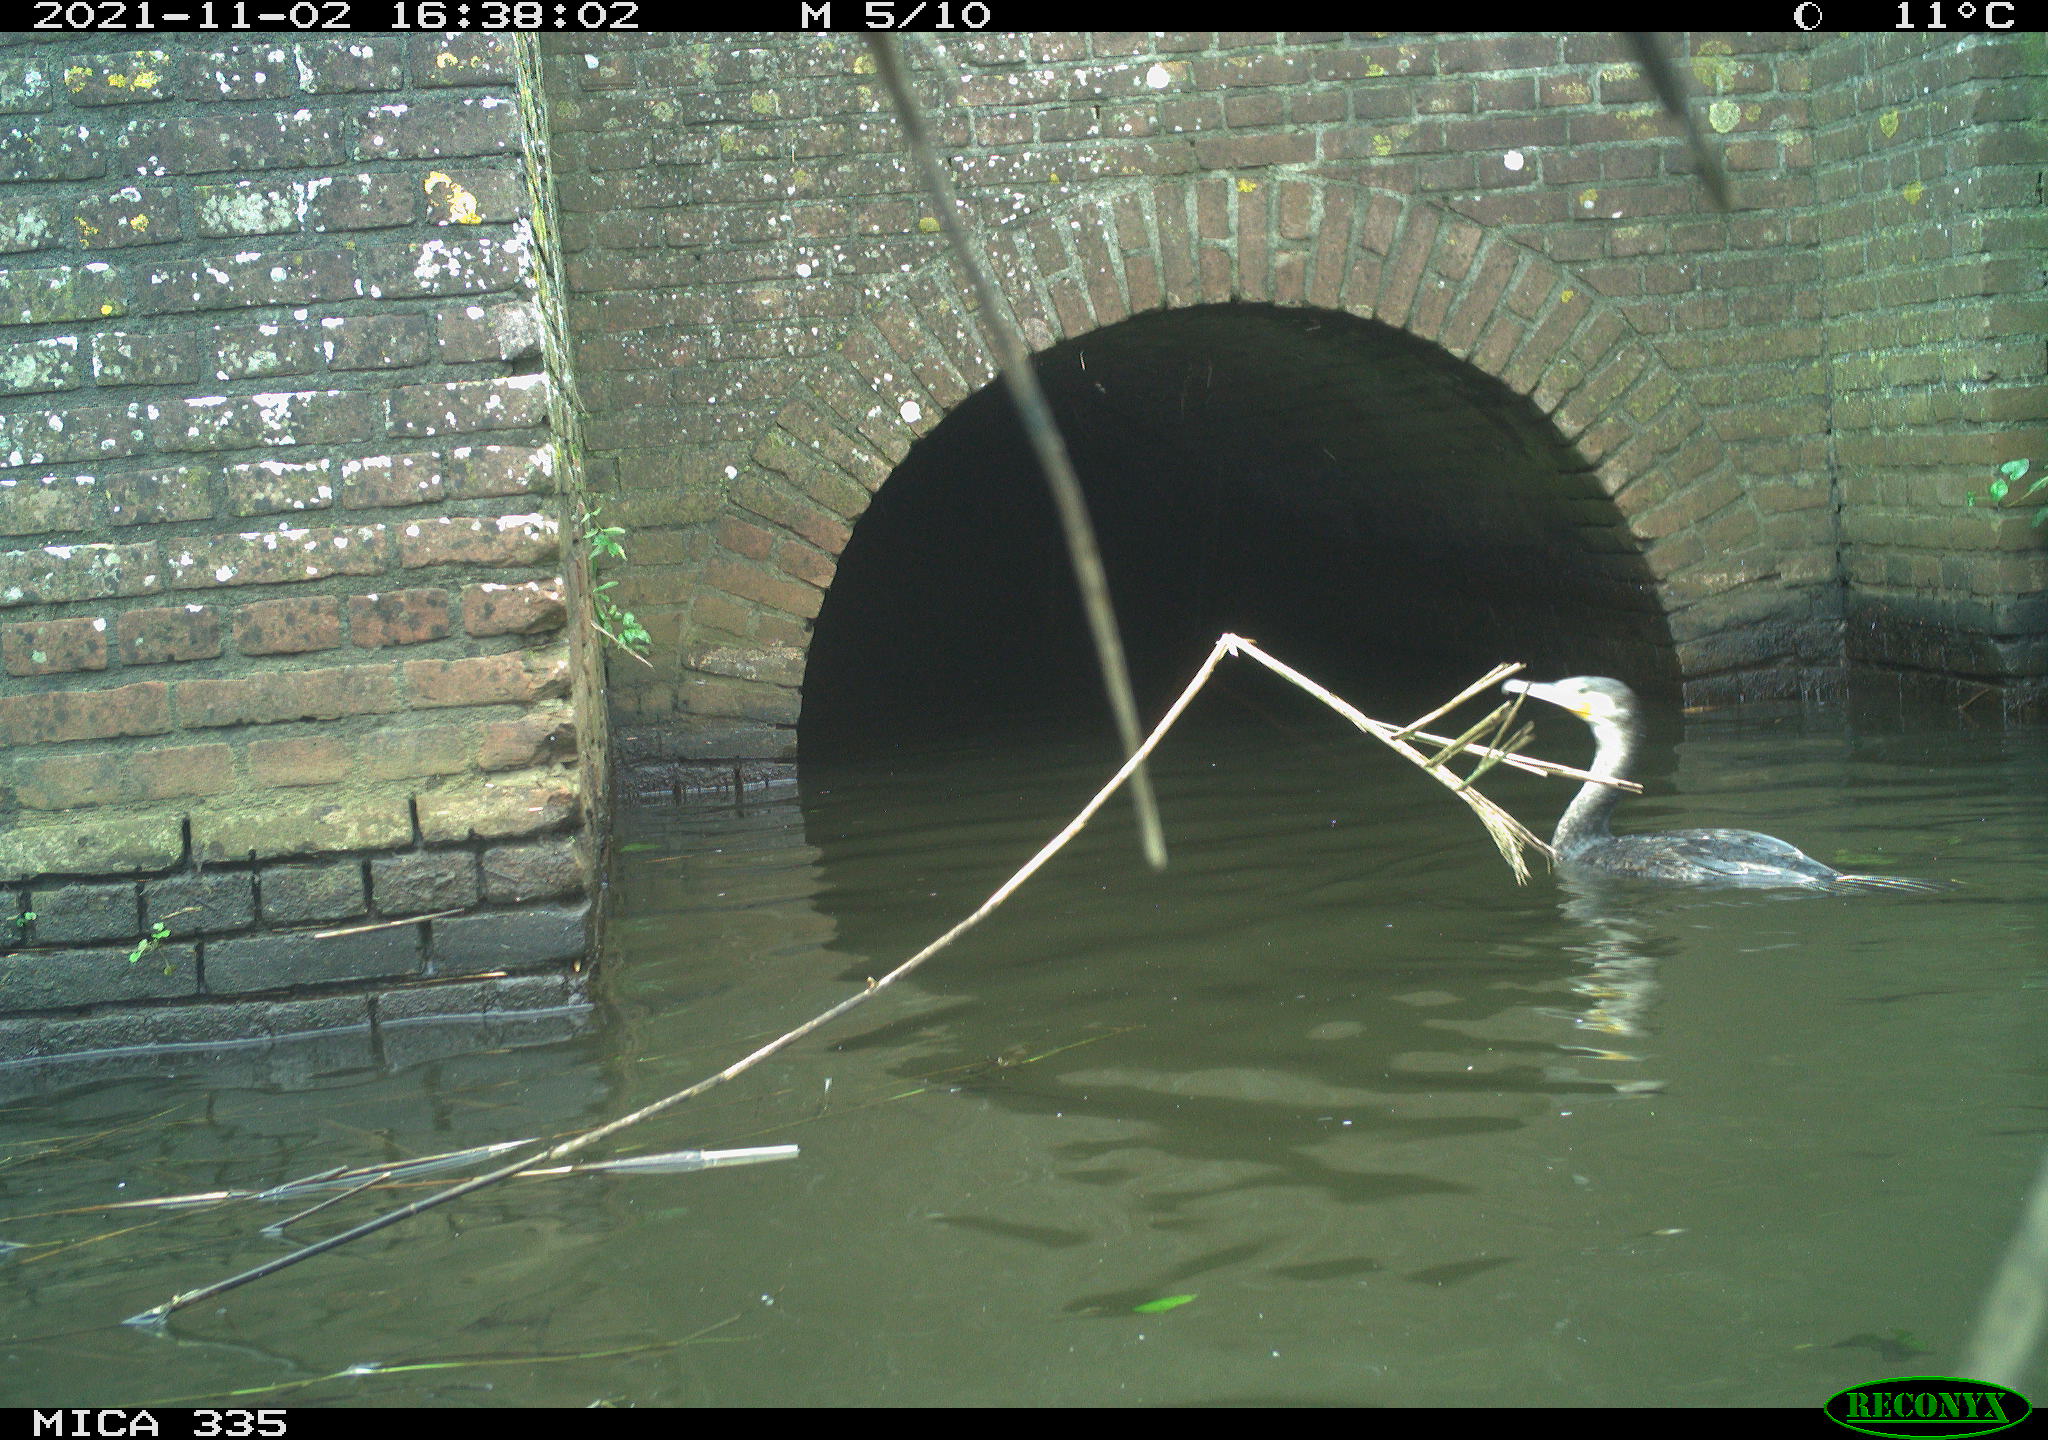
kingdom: Animalia
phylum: Chordata
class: Aves
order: Suliformes
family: Phalacrocoracidae
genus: Phalacrocorax
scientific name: Phalacrocorax carbo
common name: Great cormorant
